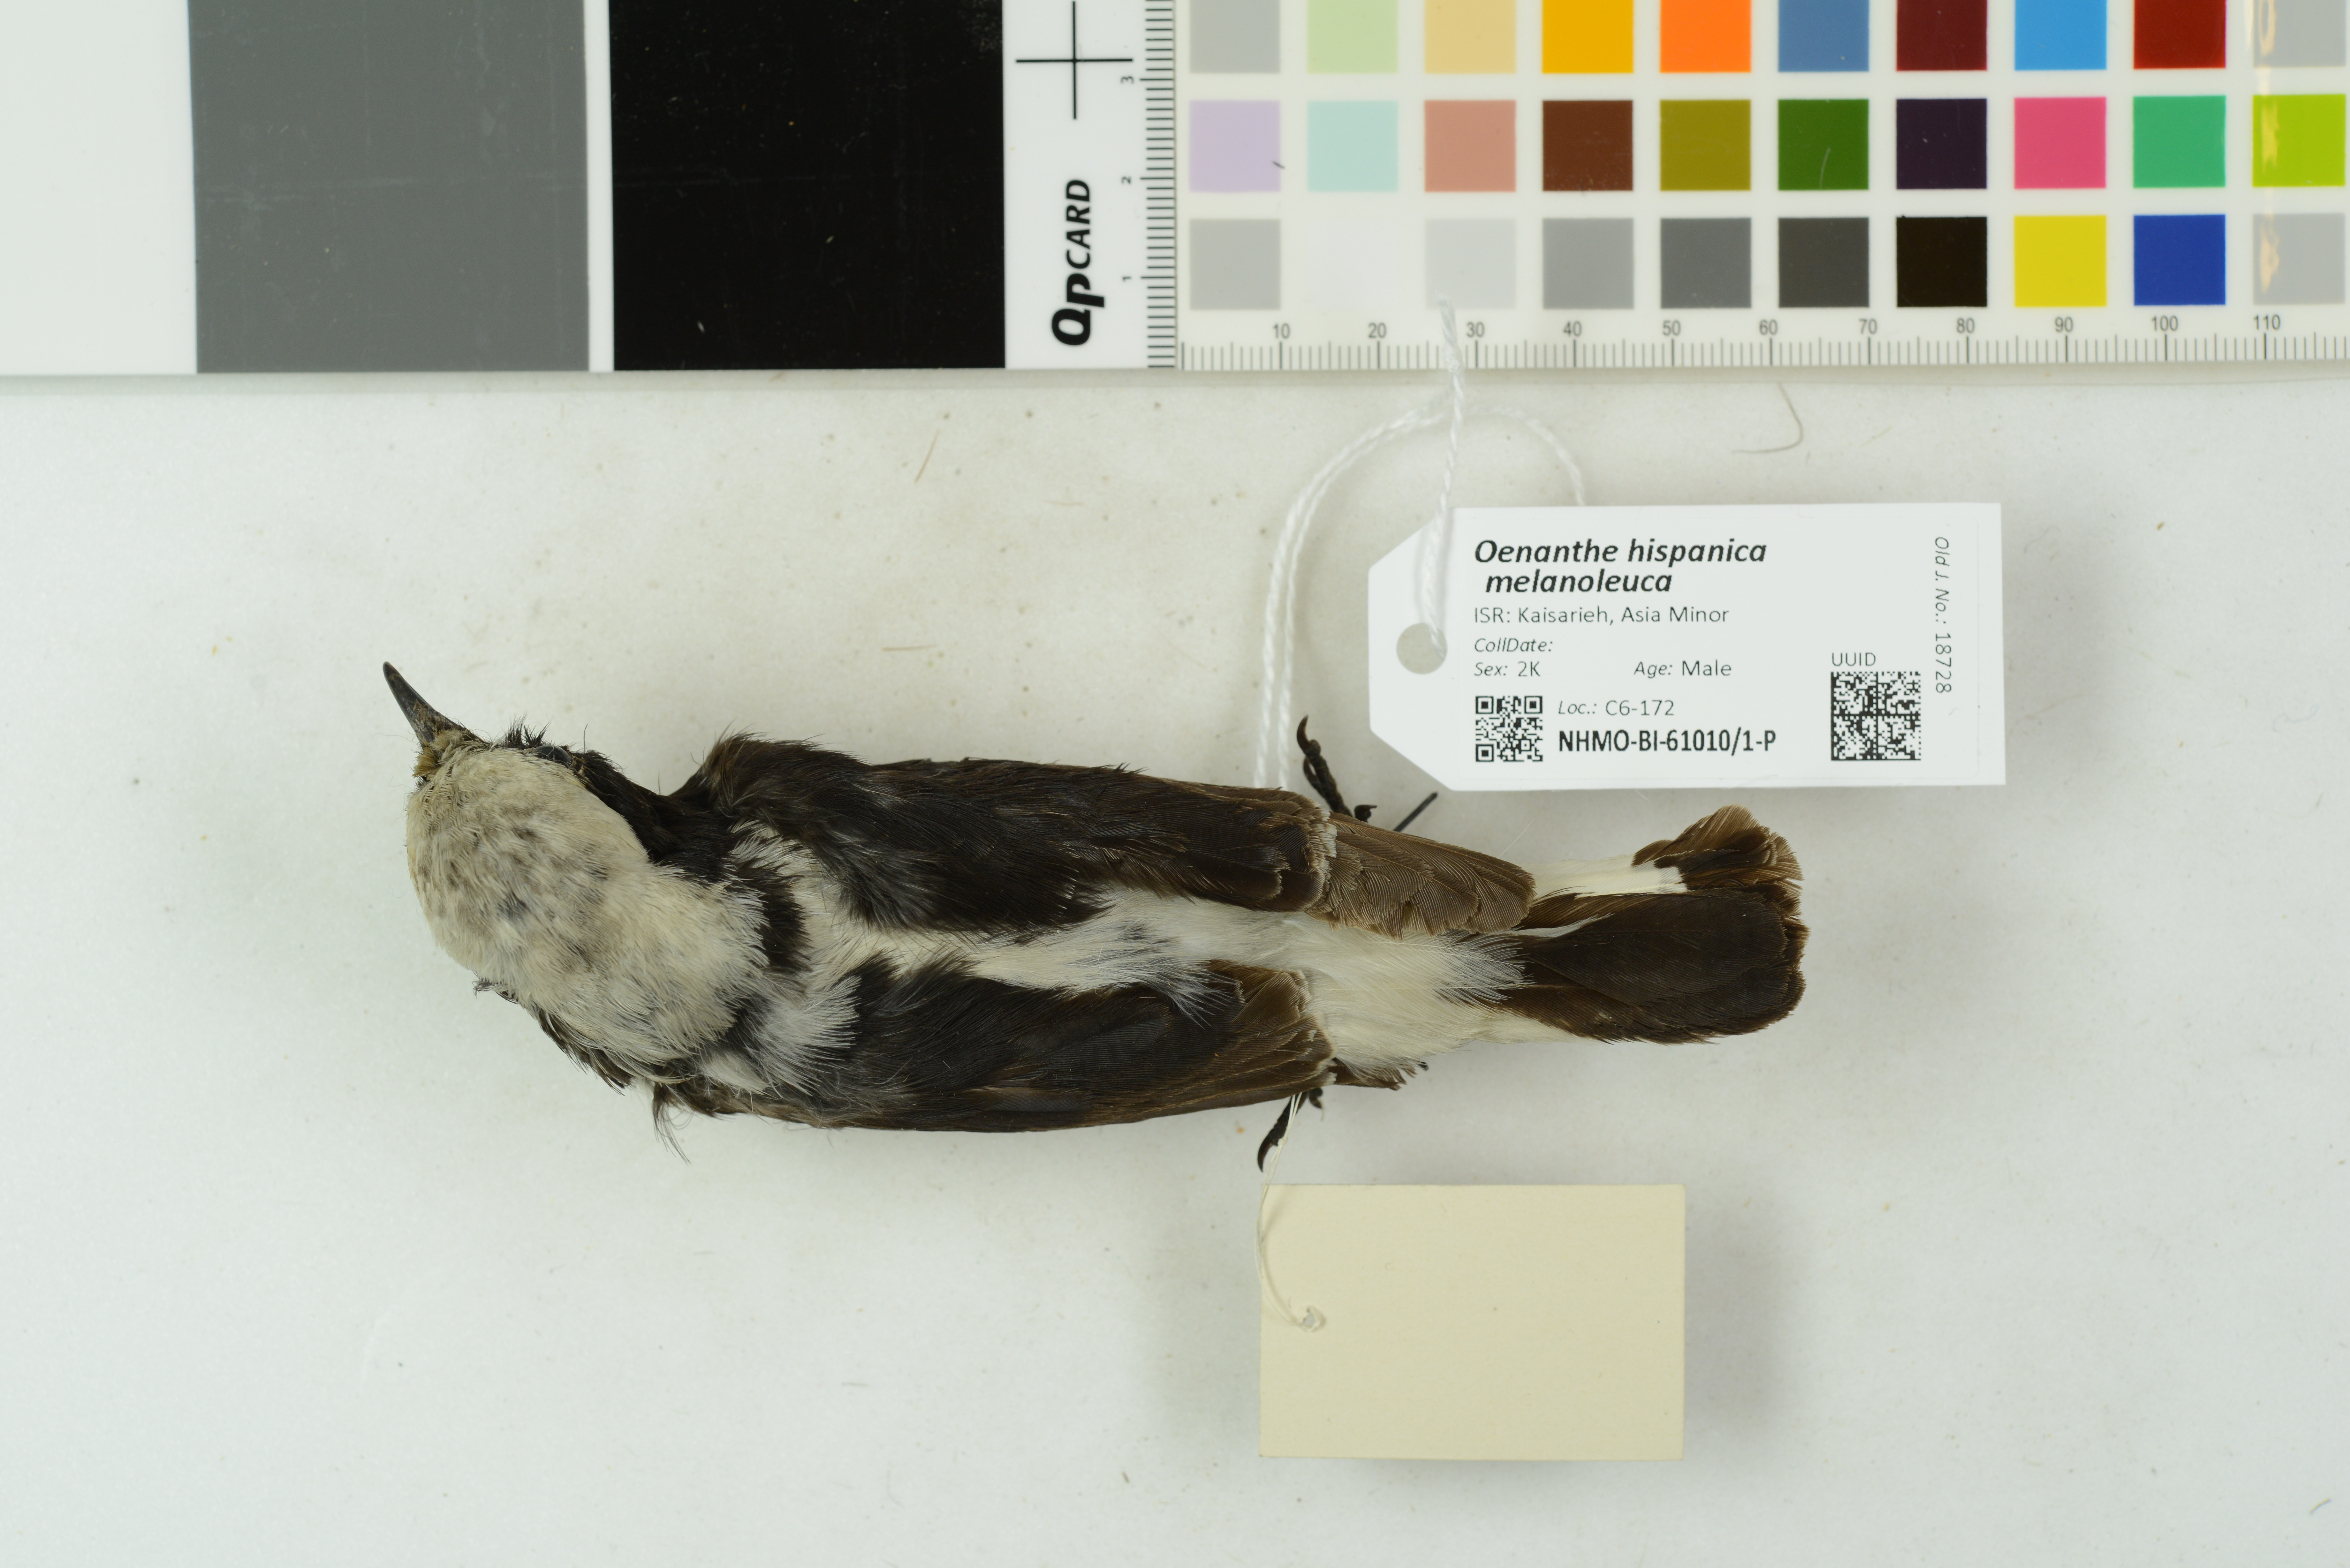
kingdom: Animalia
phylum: Chordata
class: Aves
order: Passeriformes
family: Muscicapidae
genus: Oenanthe
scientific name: Oenanthe hispanica
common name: Black-eared wheatear
